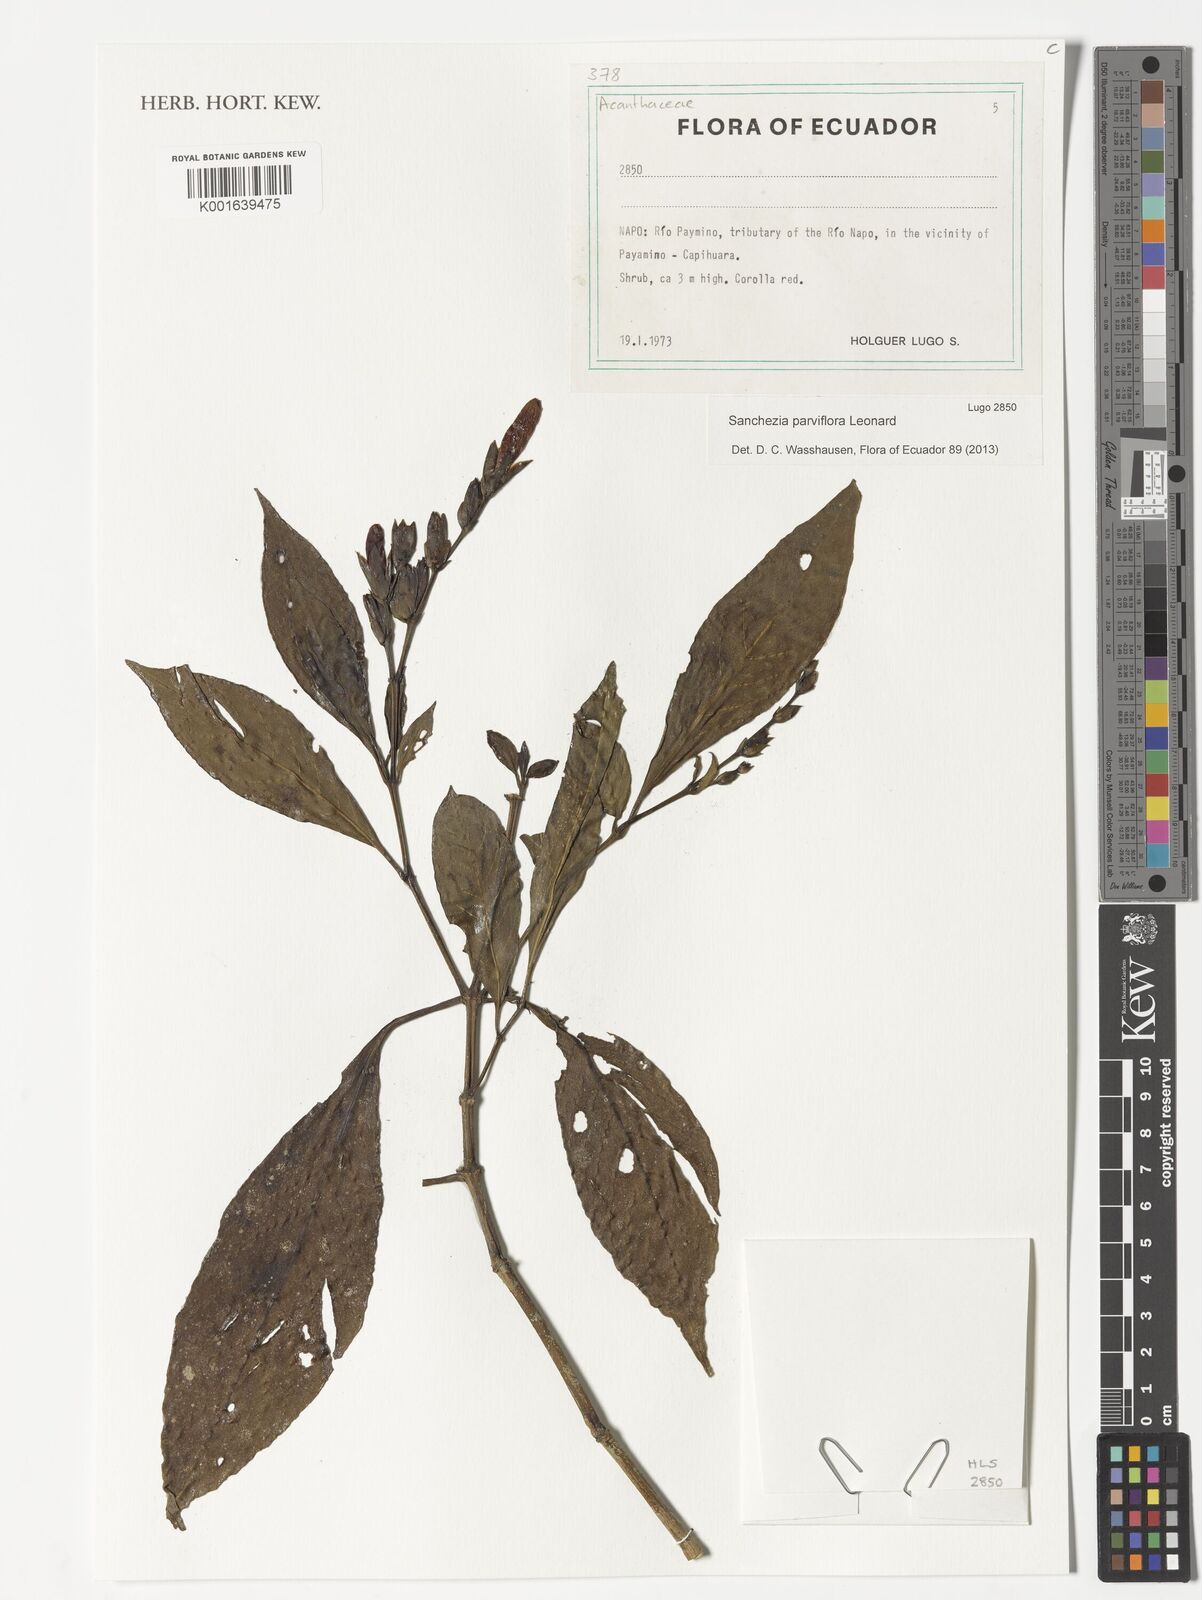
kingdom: Plantae
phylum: Tracheophyta
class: Magnoliopsida
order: Lamiales
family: Acanthaceae
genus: Sanchezia
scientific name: Sanchezia parviflora
